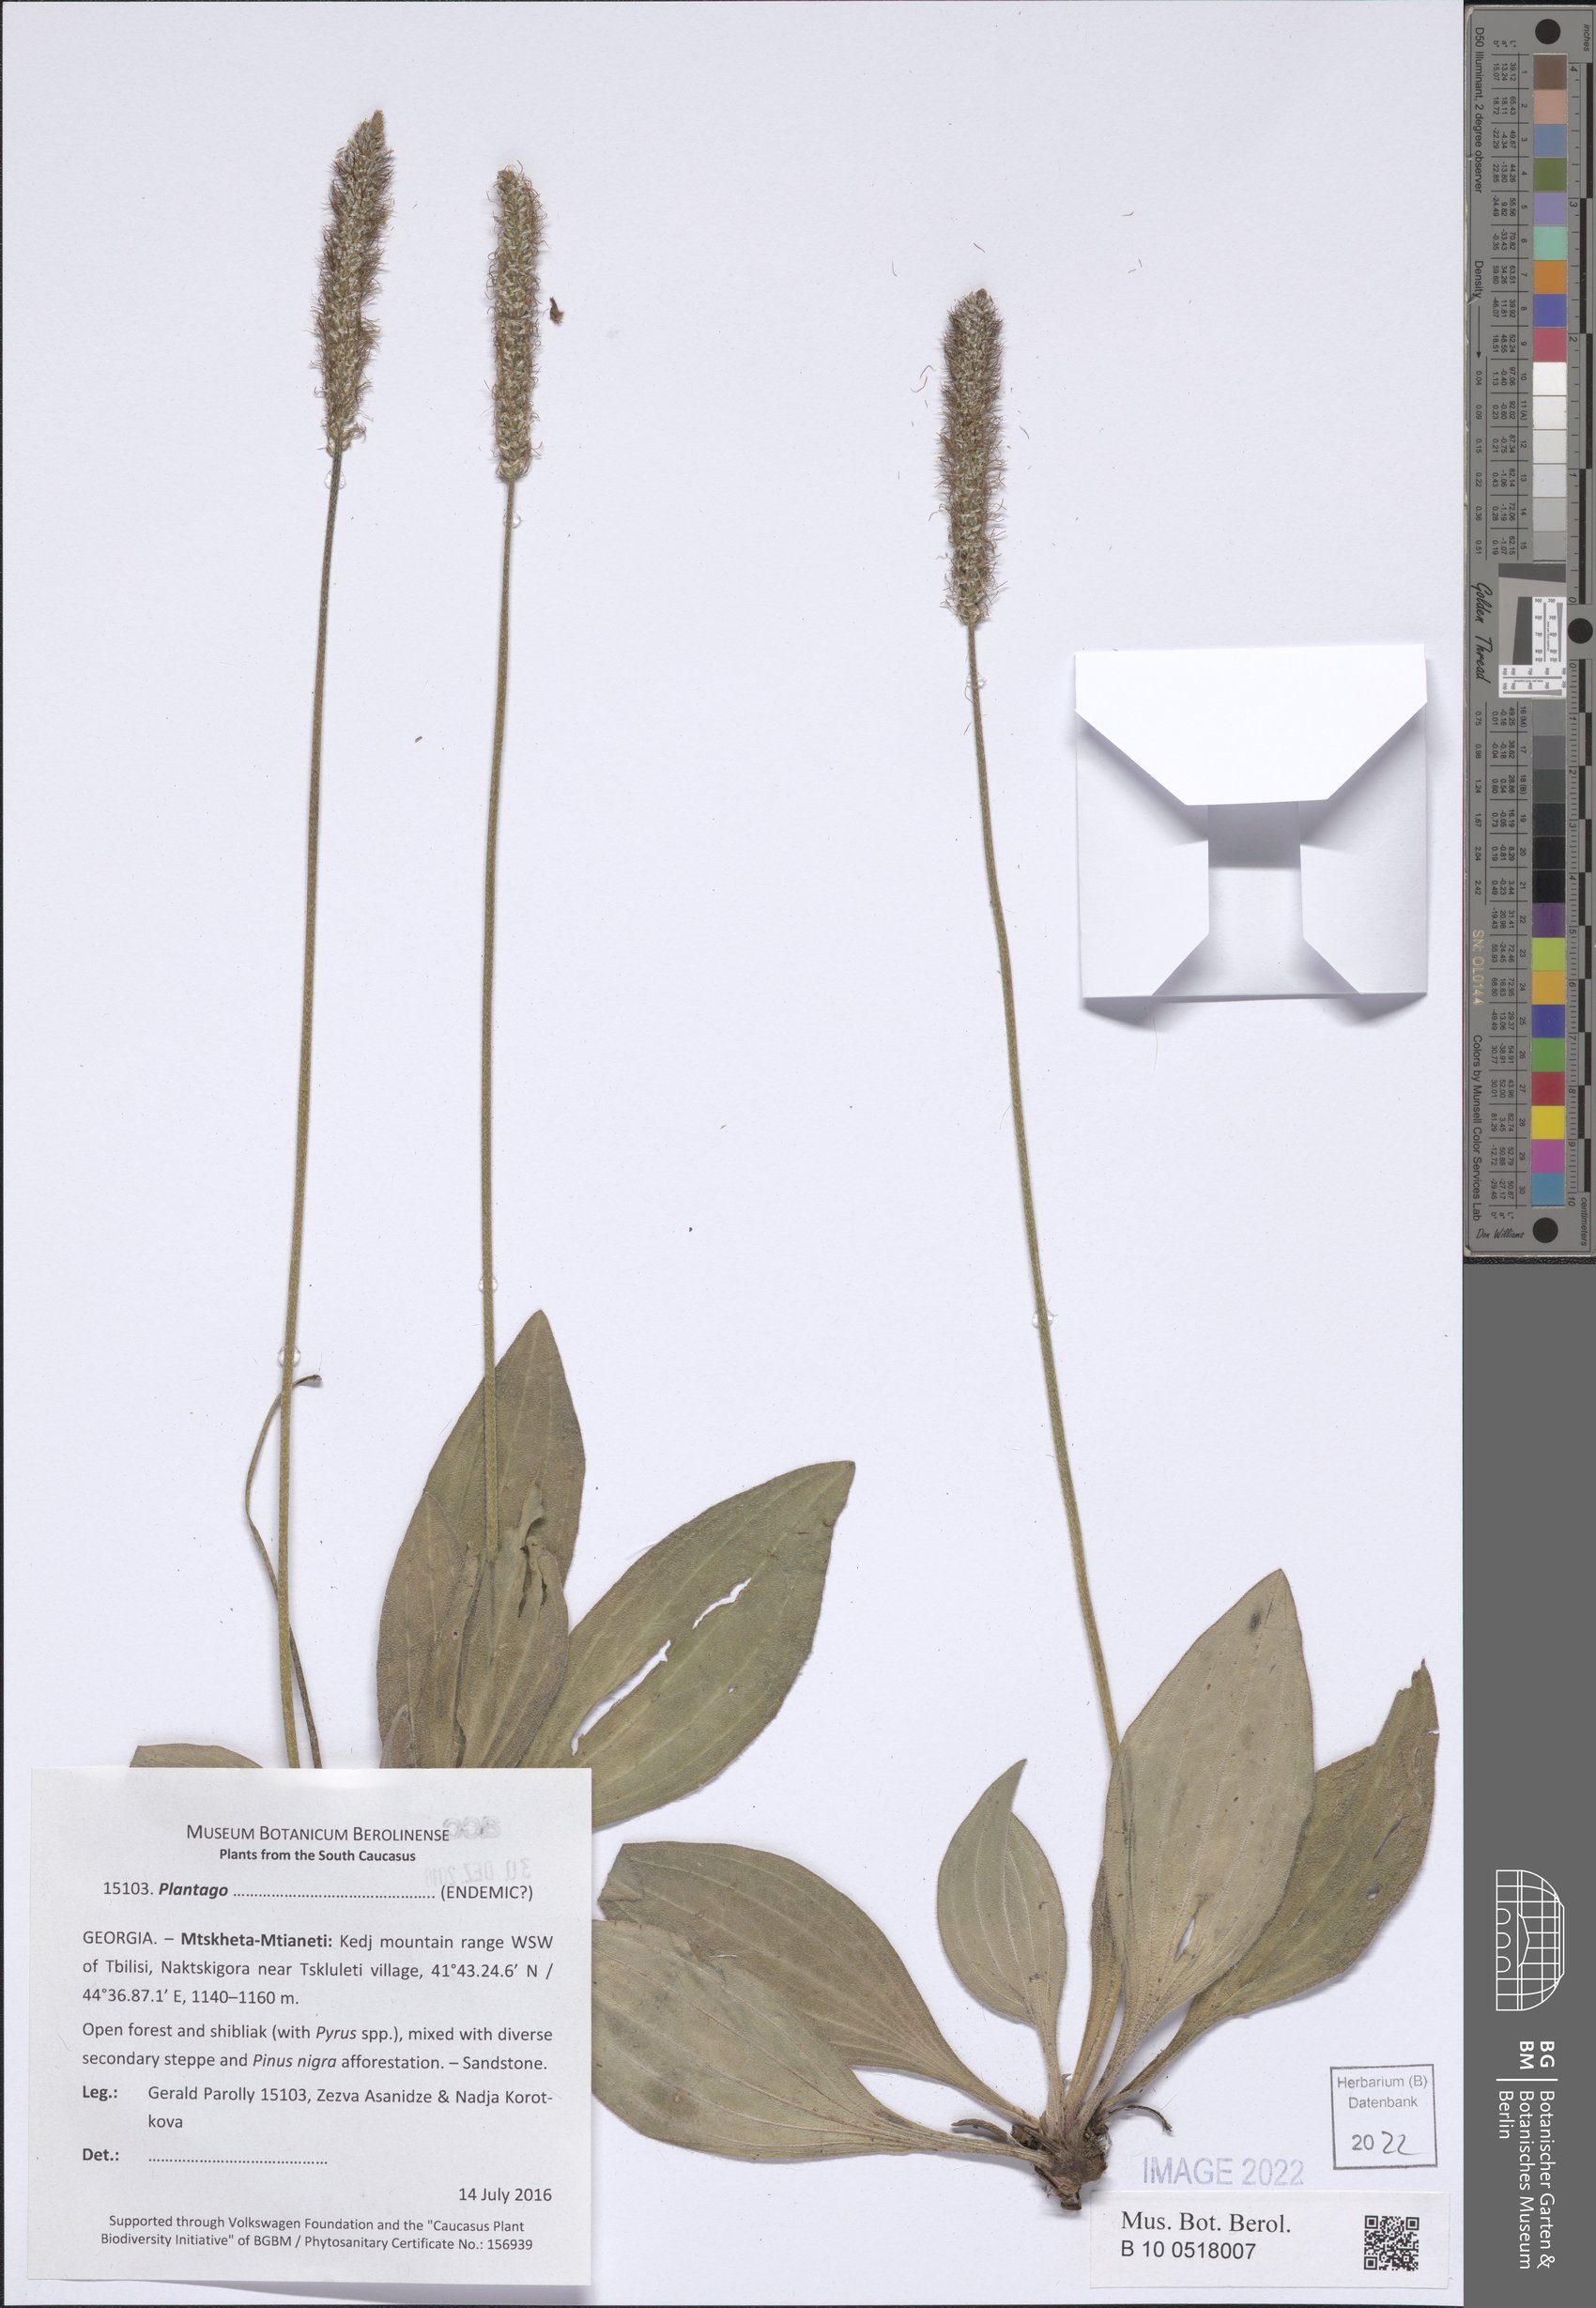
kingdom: Plantae
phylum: Tracheophyta
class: Magnoliopsida
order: Lamiales
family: Plantaginaceae
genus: Plantago
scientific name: Plantago
